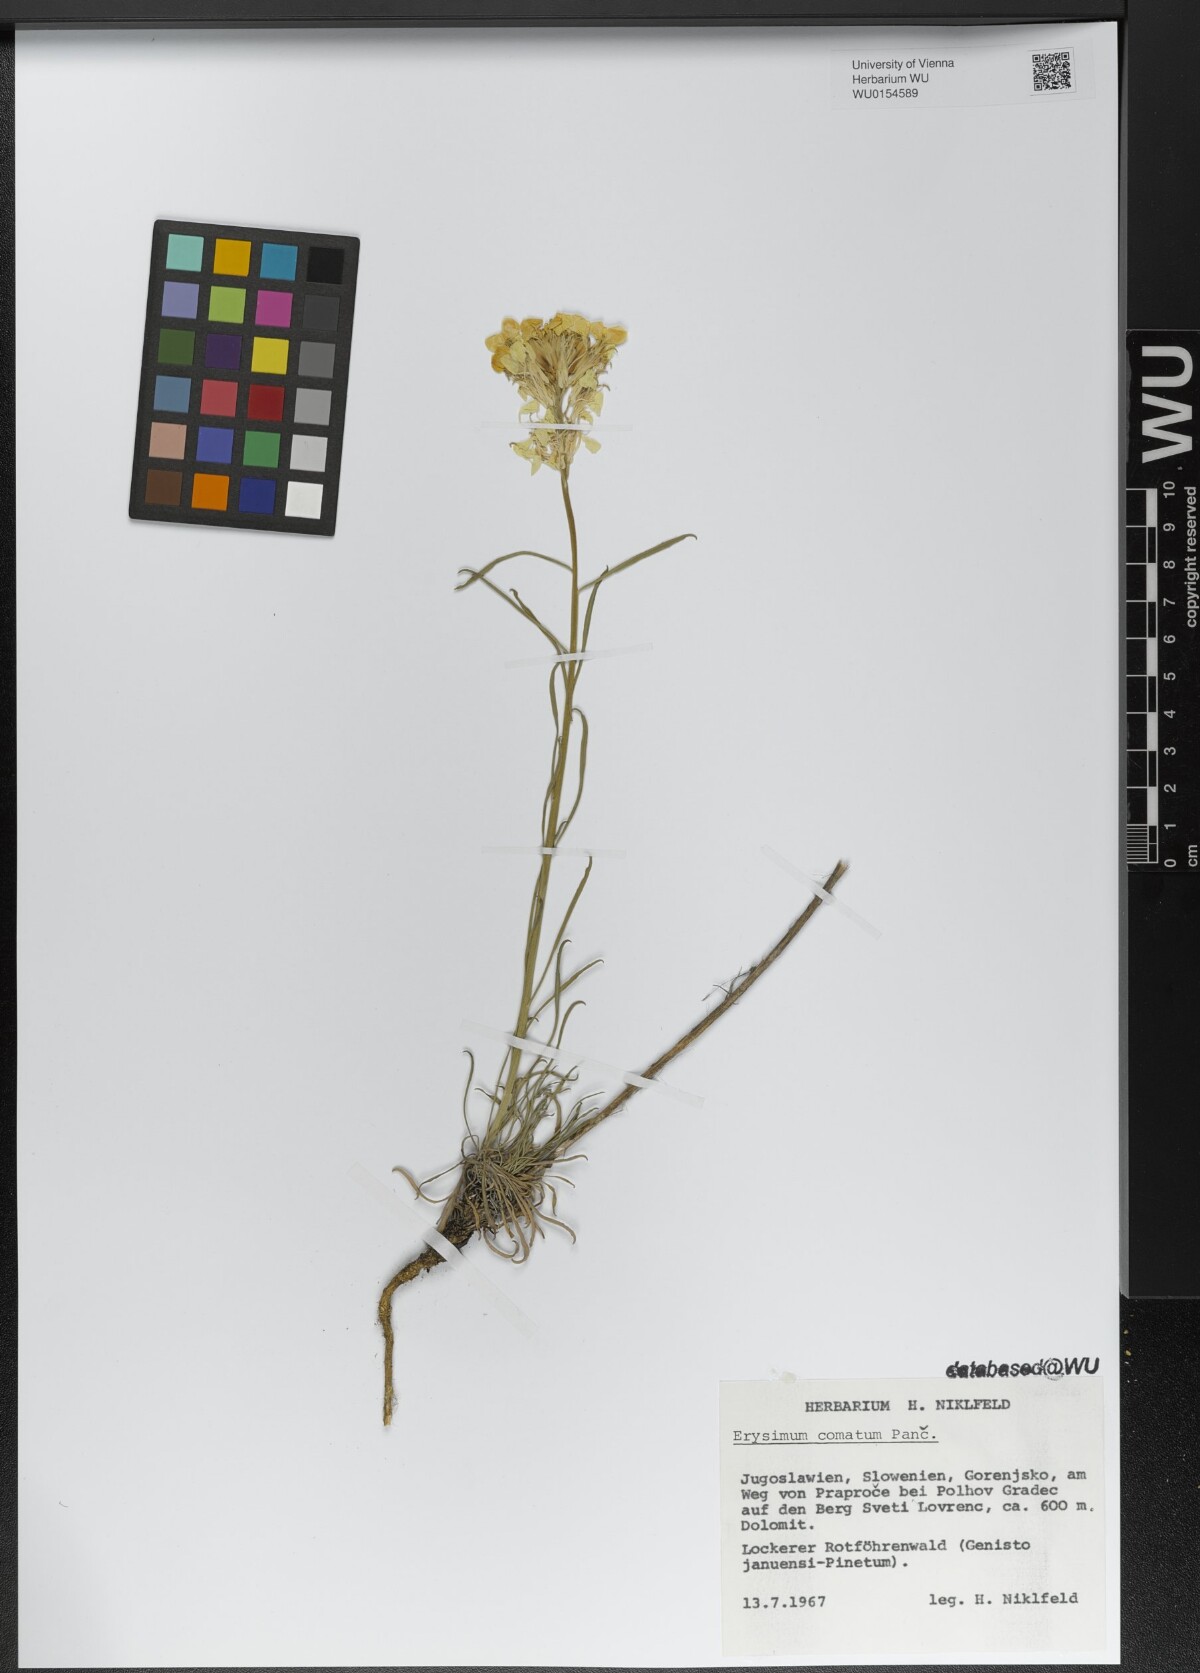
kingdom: Plantae
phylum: Tracheophyta
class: Magnoliopsida
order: Brassicales
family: Brassicaceae
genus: Erysimum
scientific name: Erysimum comatum
